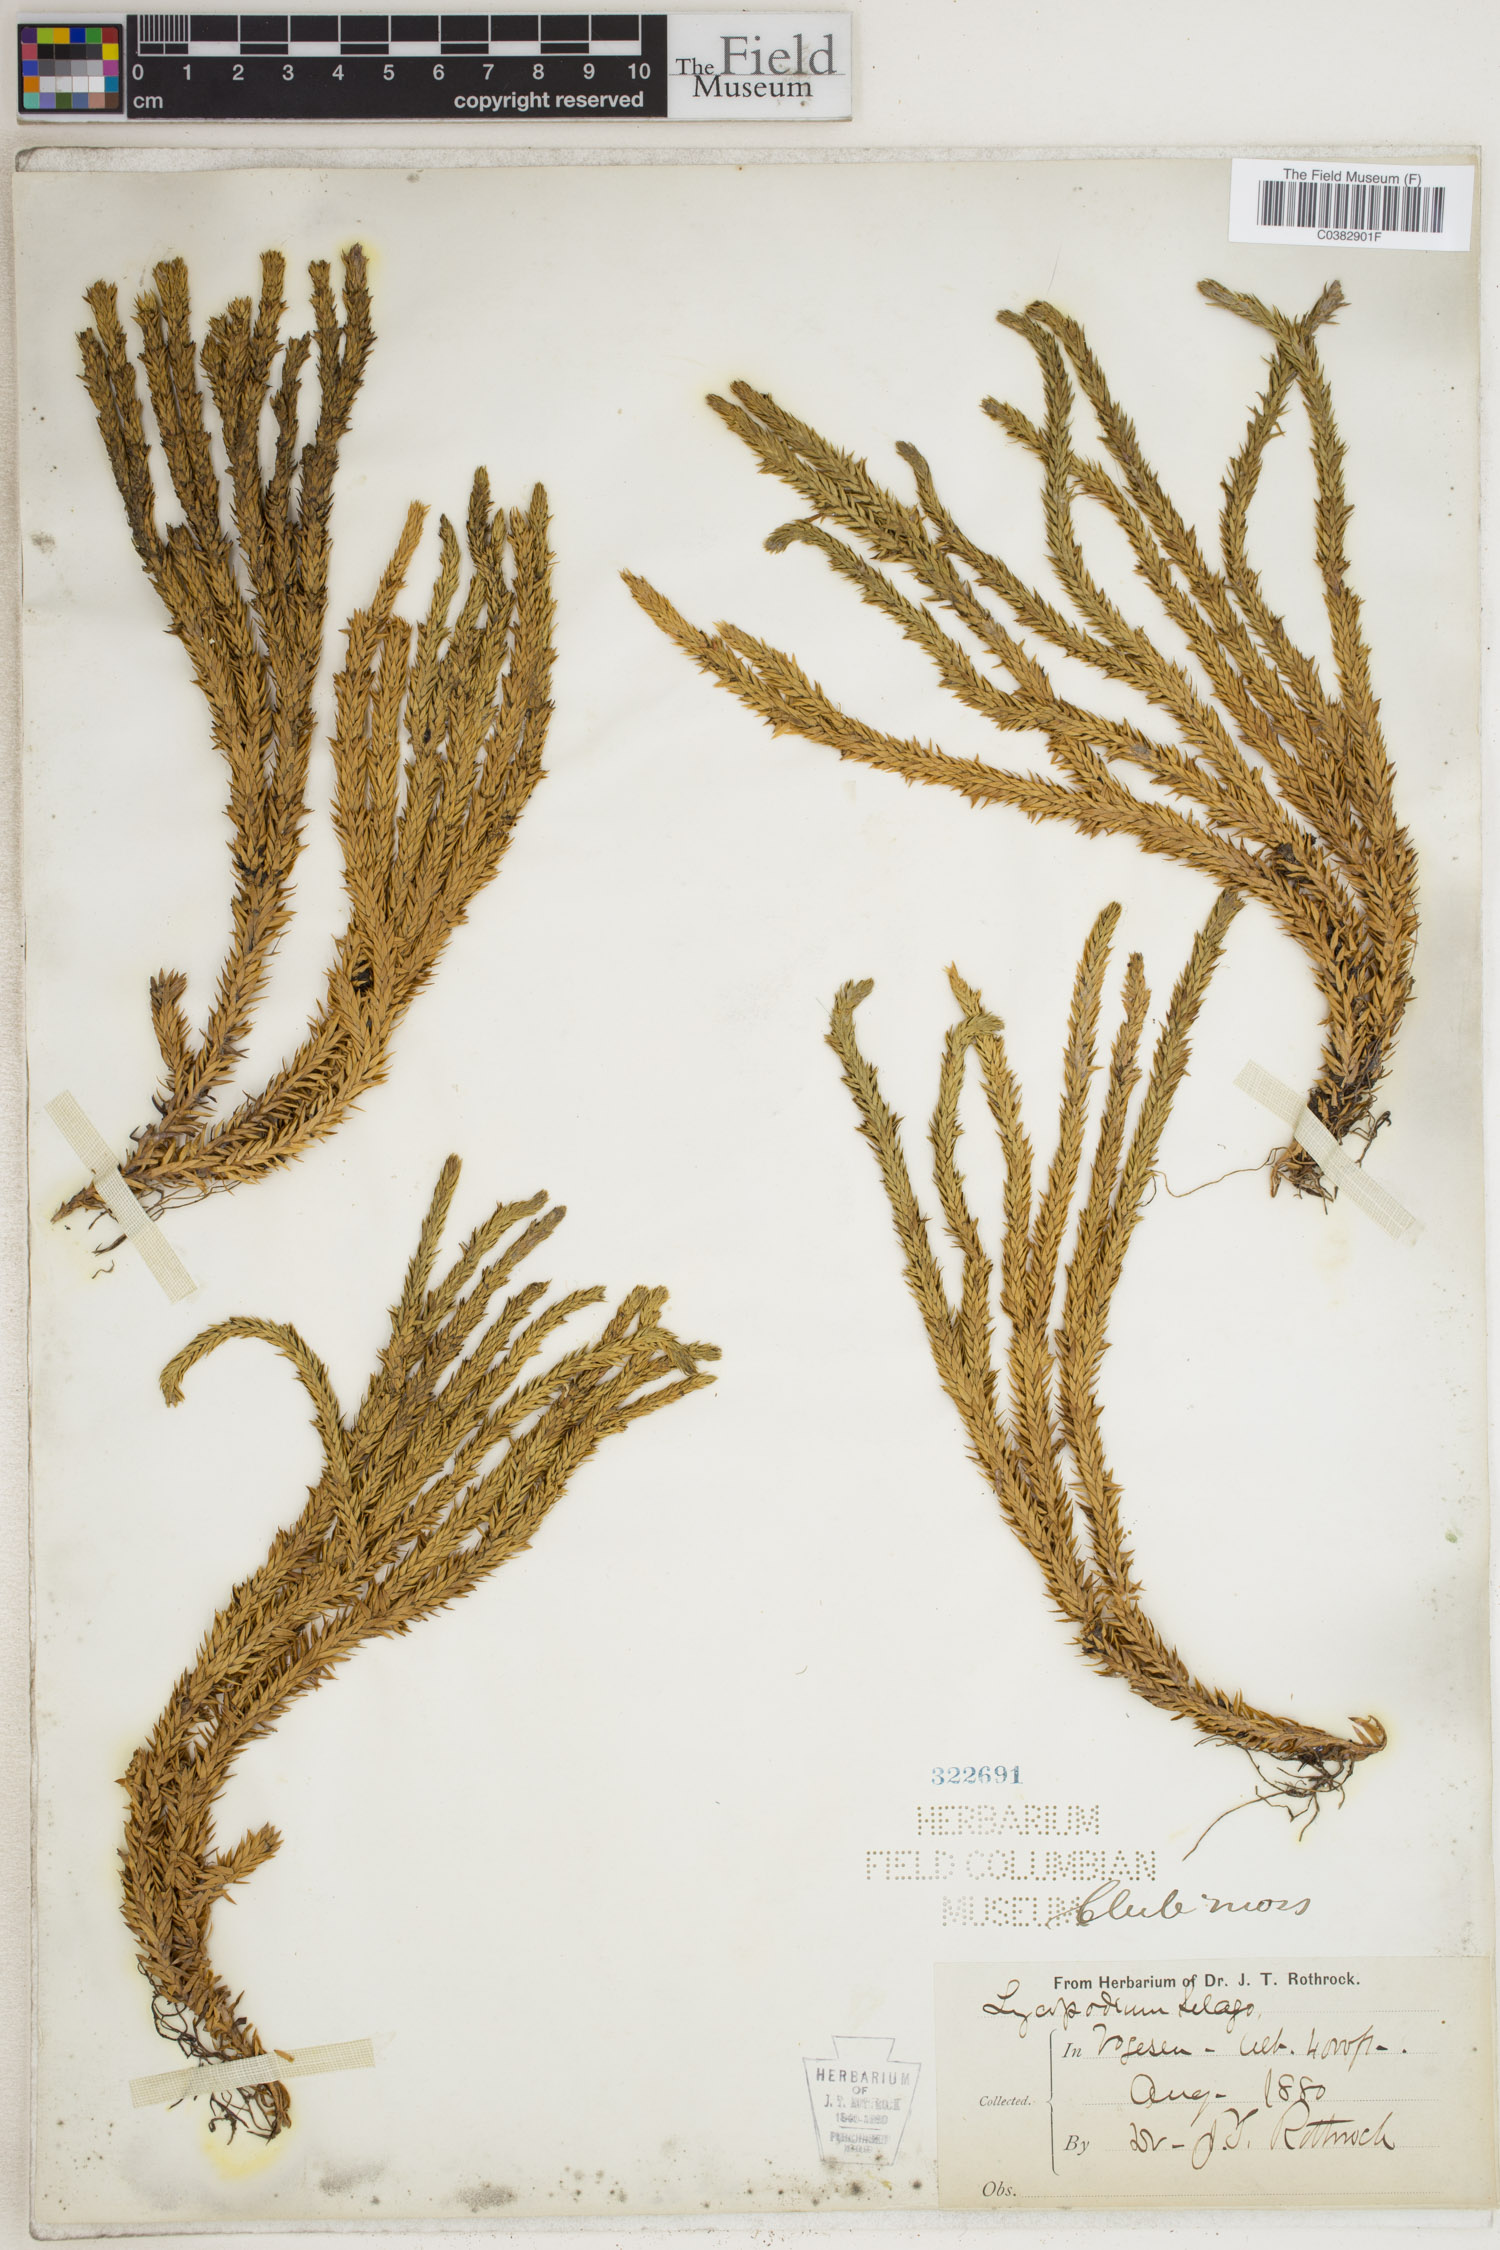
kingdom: Plantae
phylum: Tracheophyta
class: Lycopodiopsida
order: Lycopodiales
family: Lycopodiaceae
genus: Huperzia
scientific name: Huperzia selago
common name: Northern firmoss
